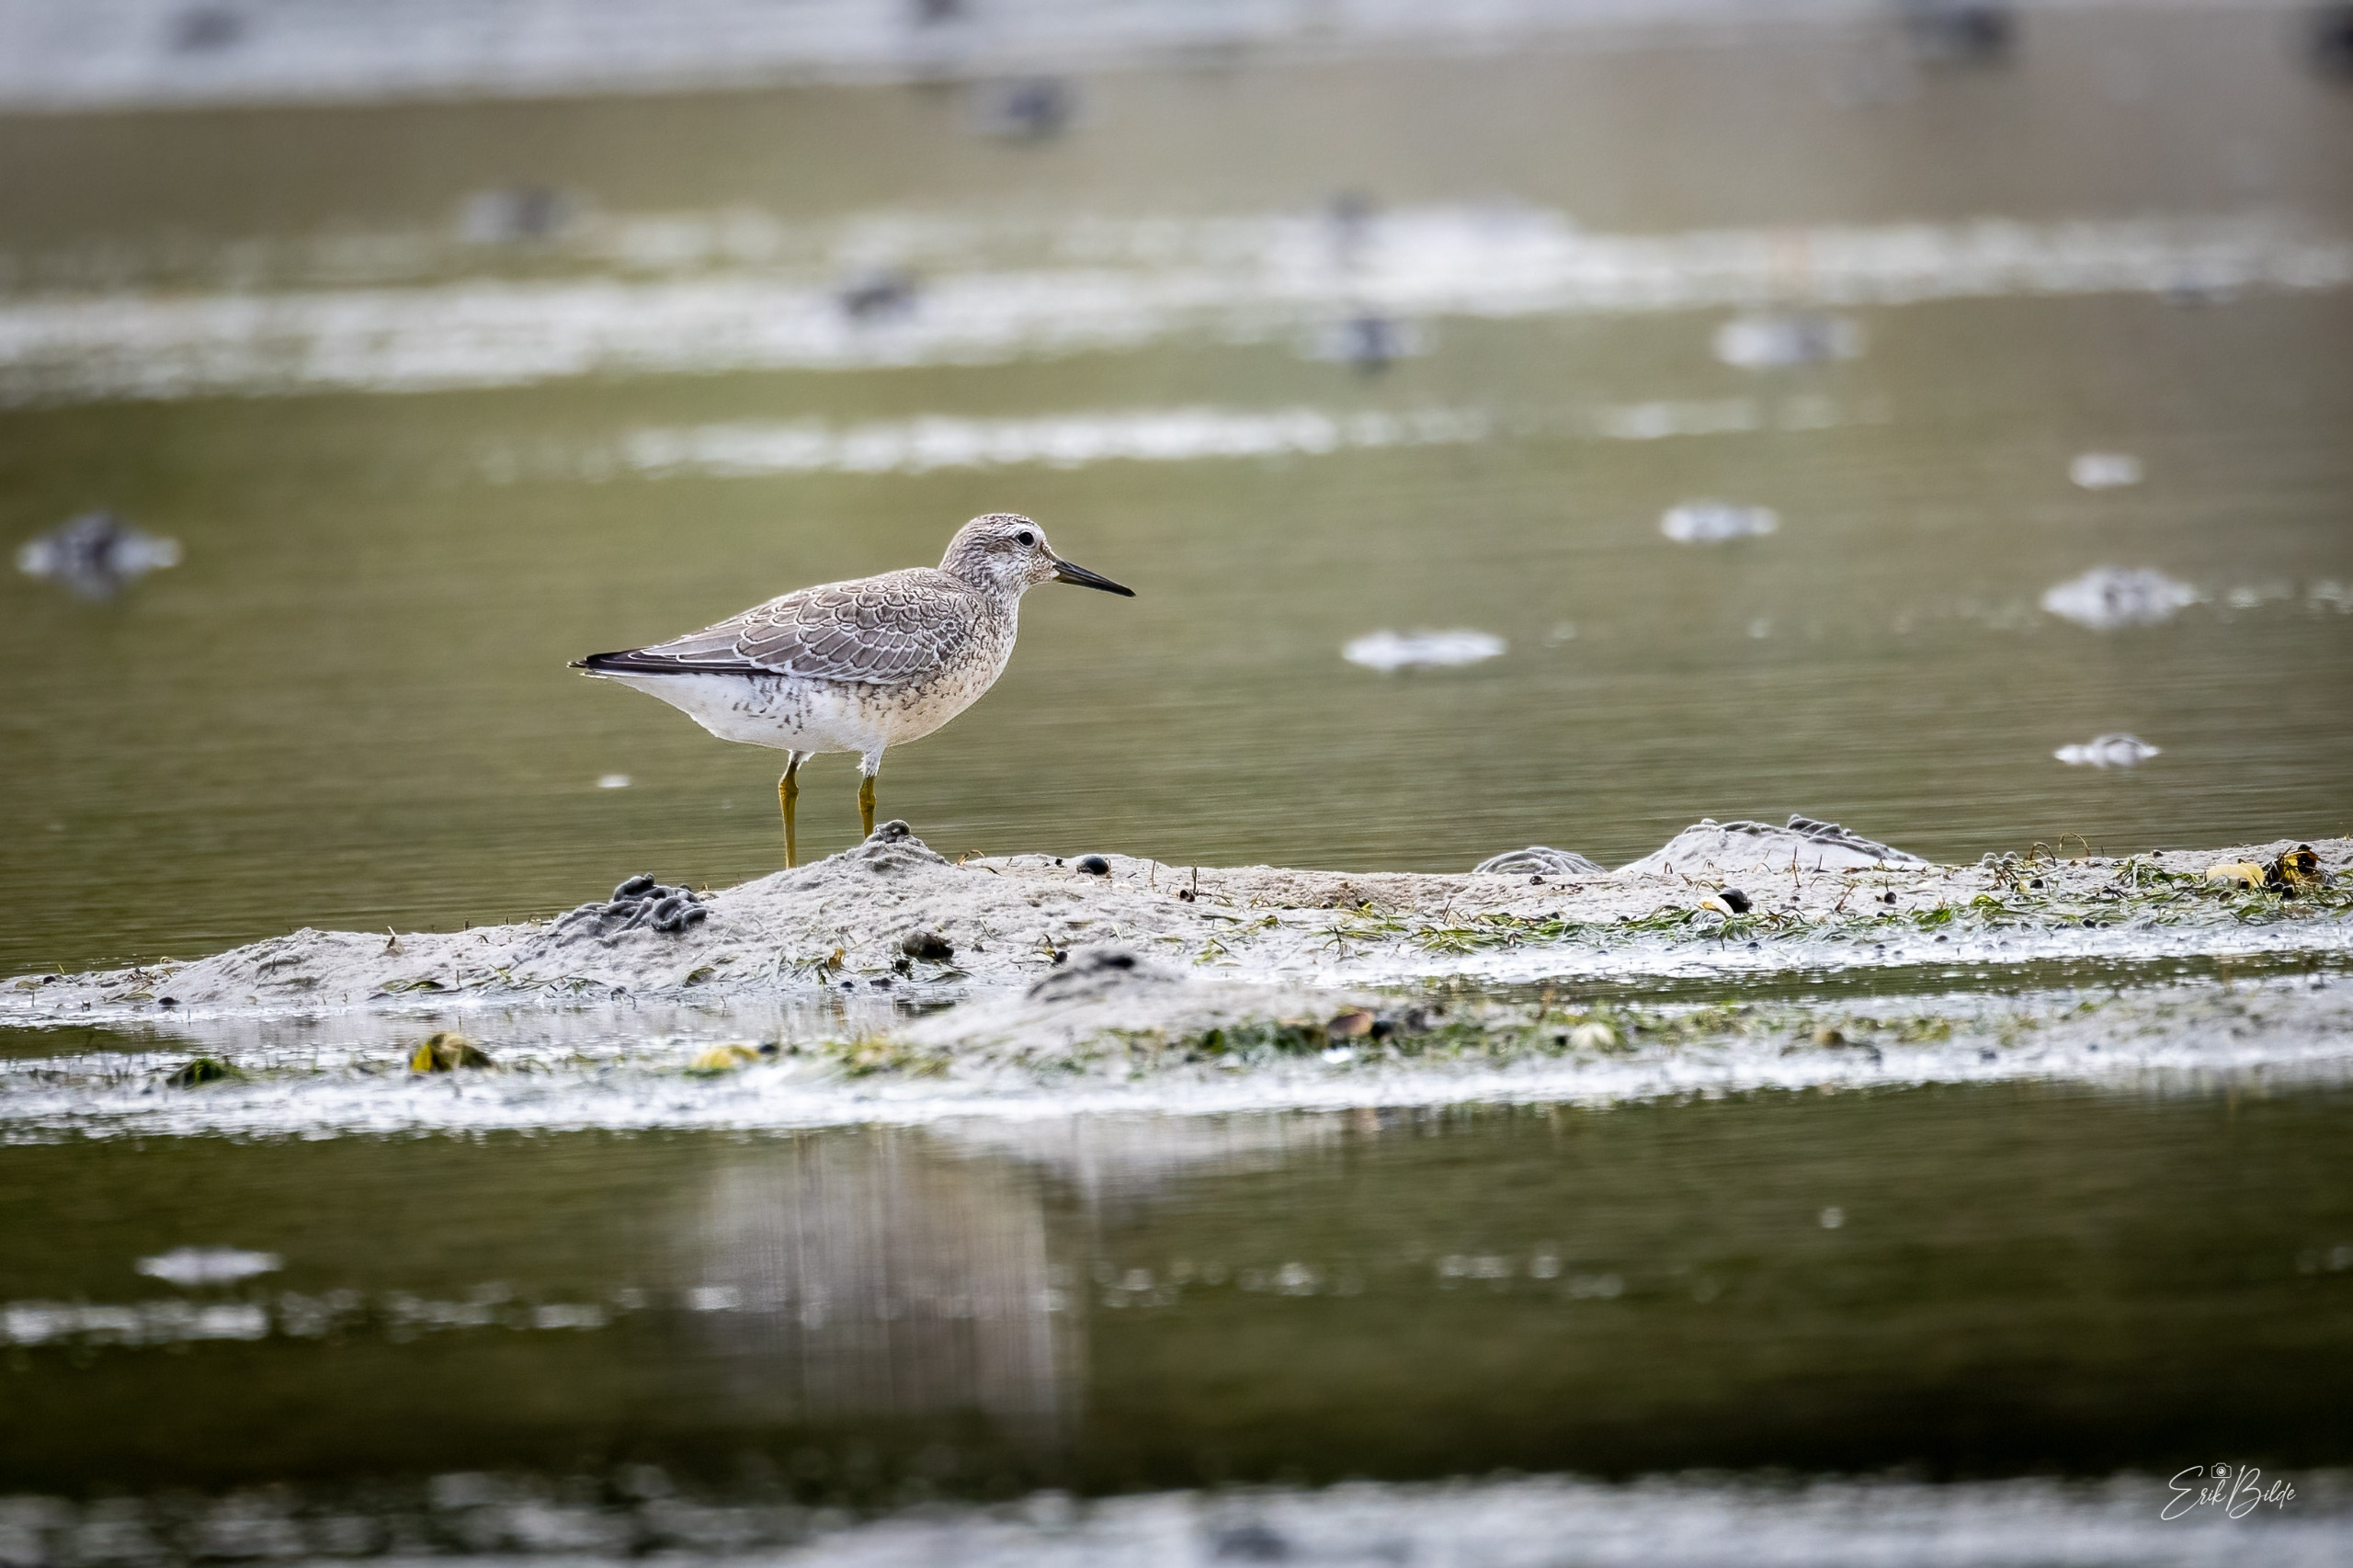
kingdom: Animalia
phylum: Chordata
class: Aves
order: Charadriiformes
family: Scolopacidae
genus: Calidris
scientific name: Calidris canutus
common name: Islandsk ryle
